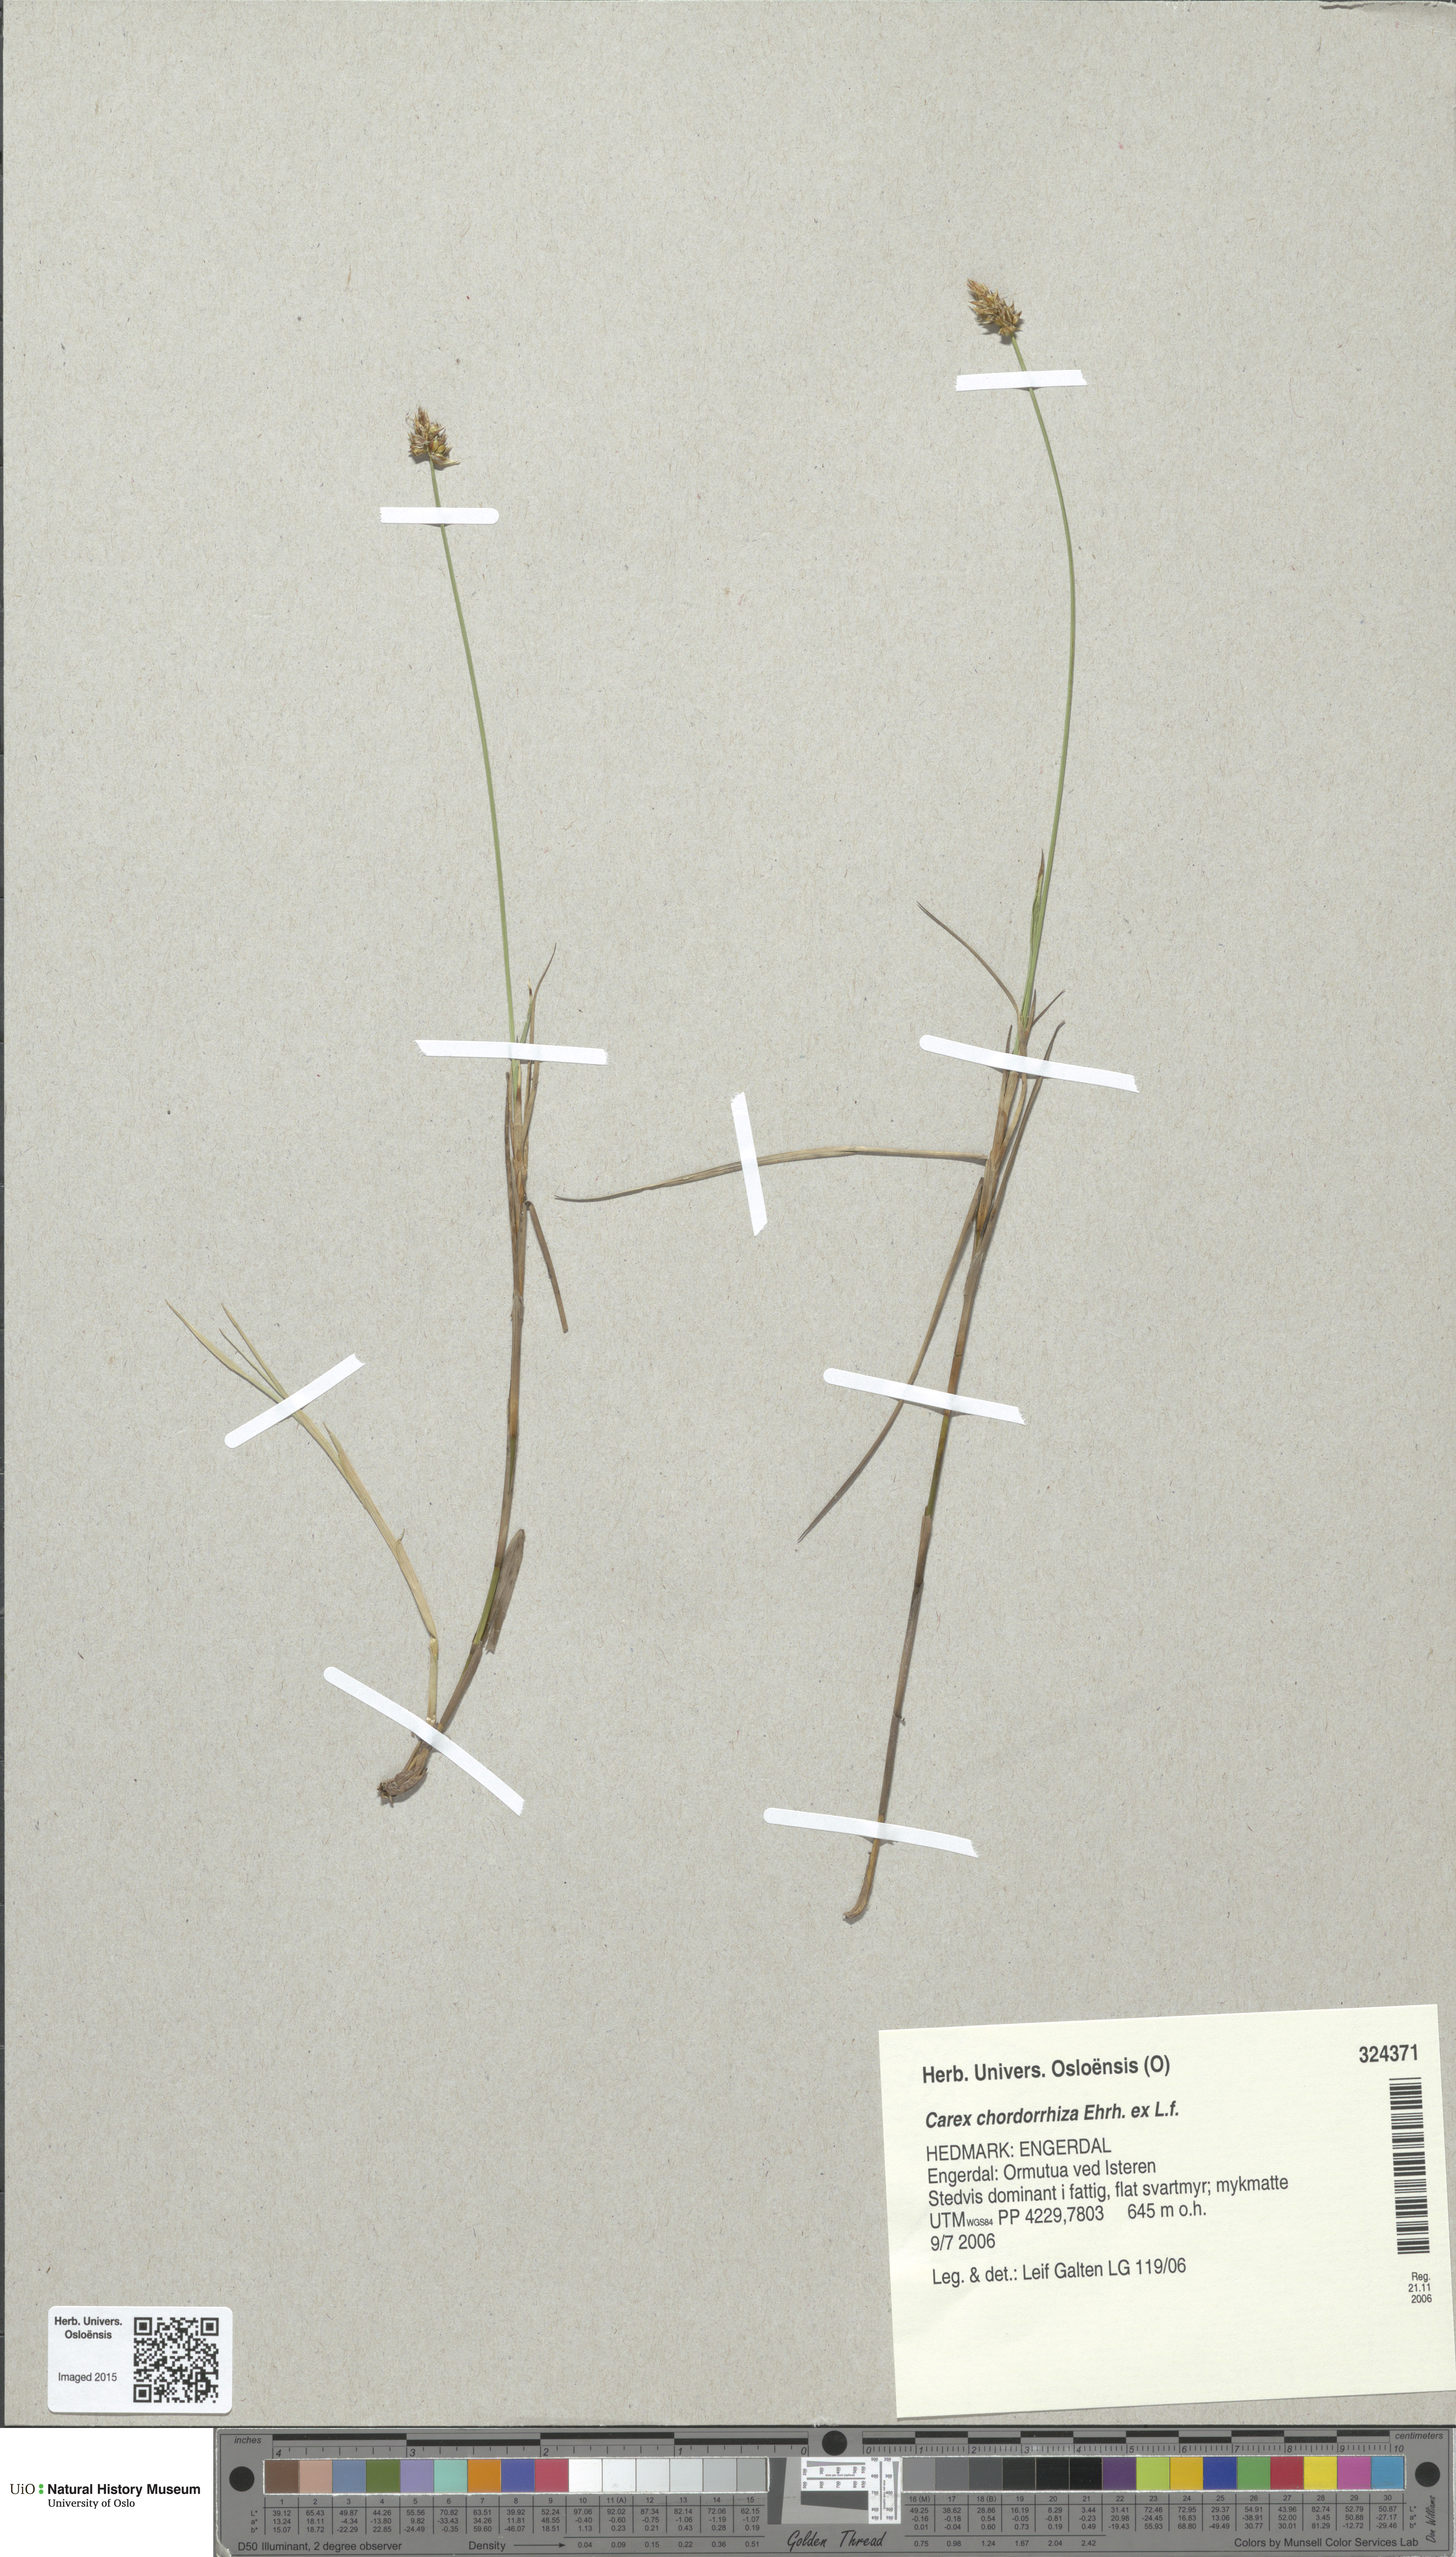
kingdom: Plantae
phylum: Tracheophyta
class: Liliopsida
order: Poales
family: Cyperaceae
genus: Carex
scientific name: Carex chordorrhiza
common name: String sedge
